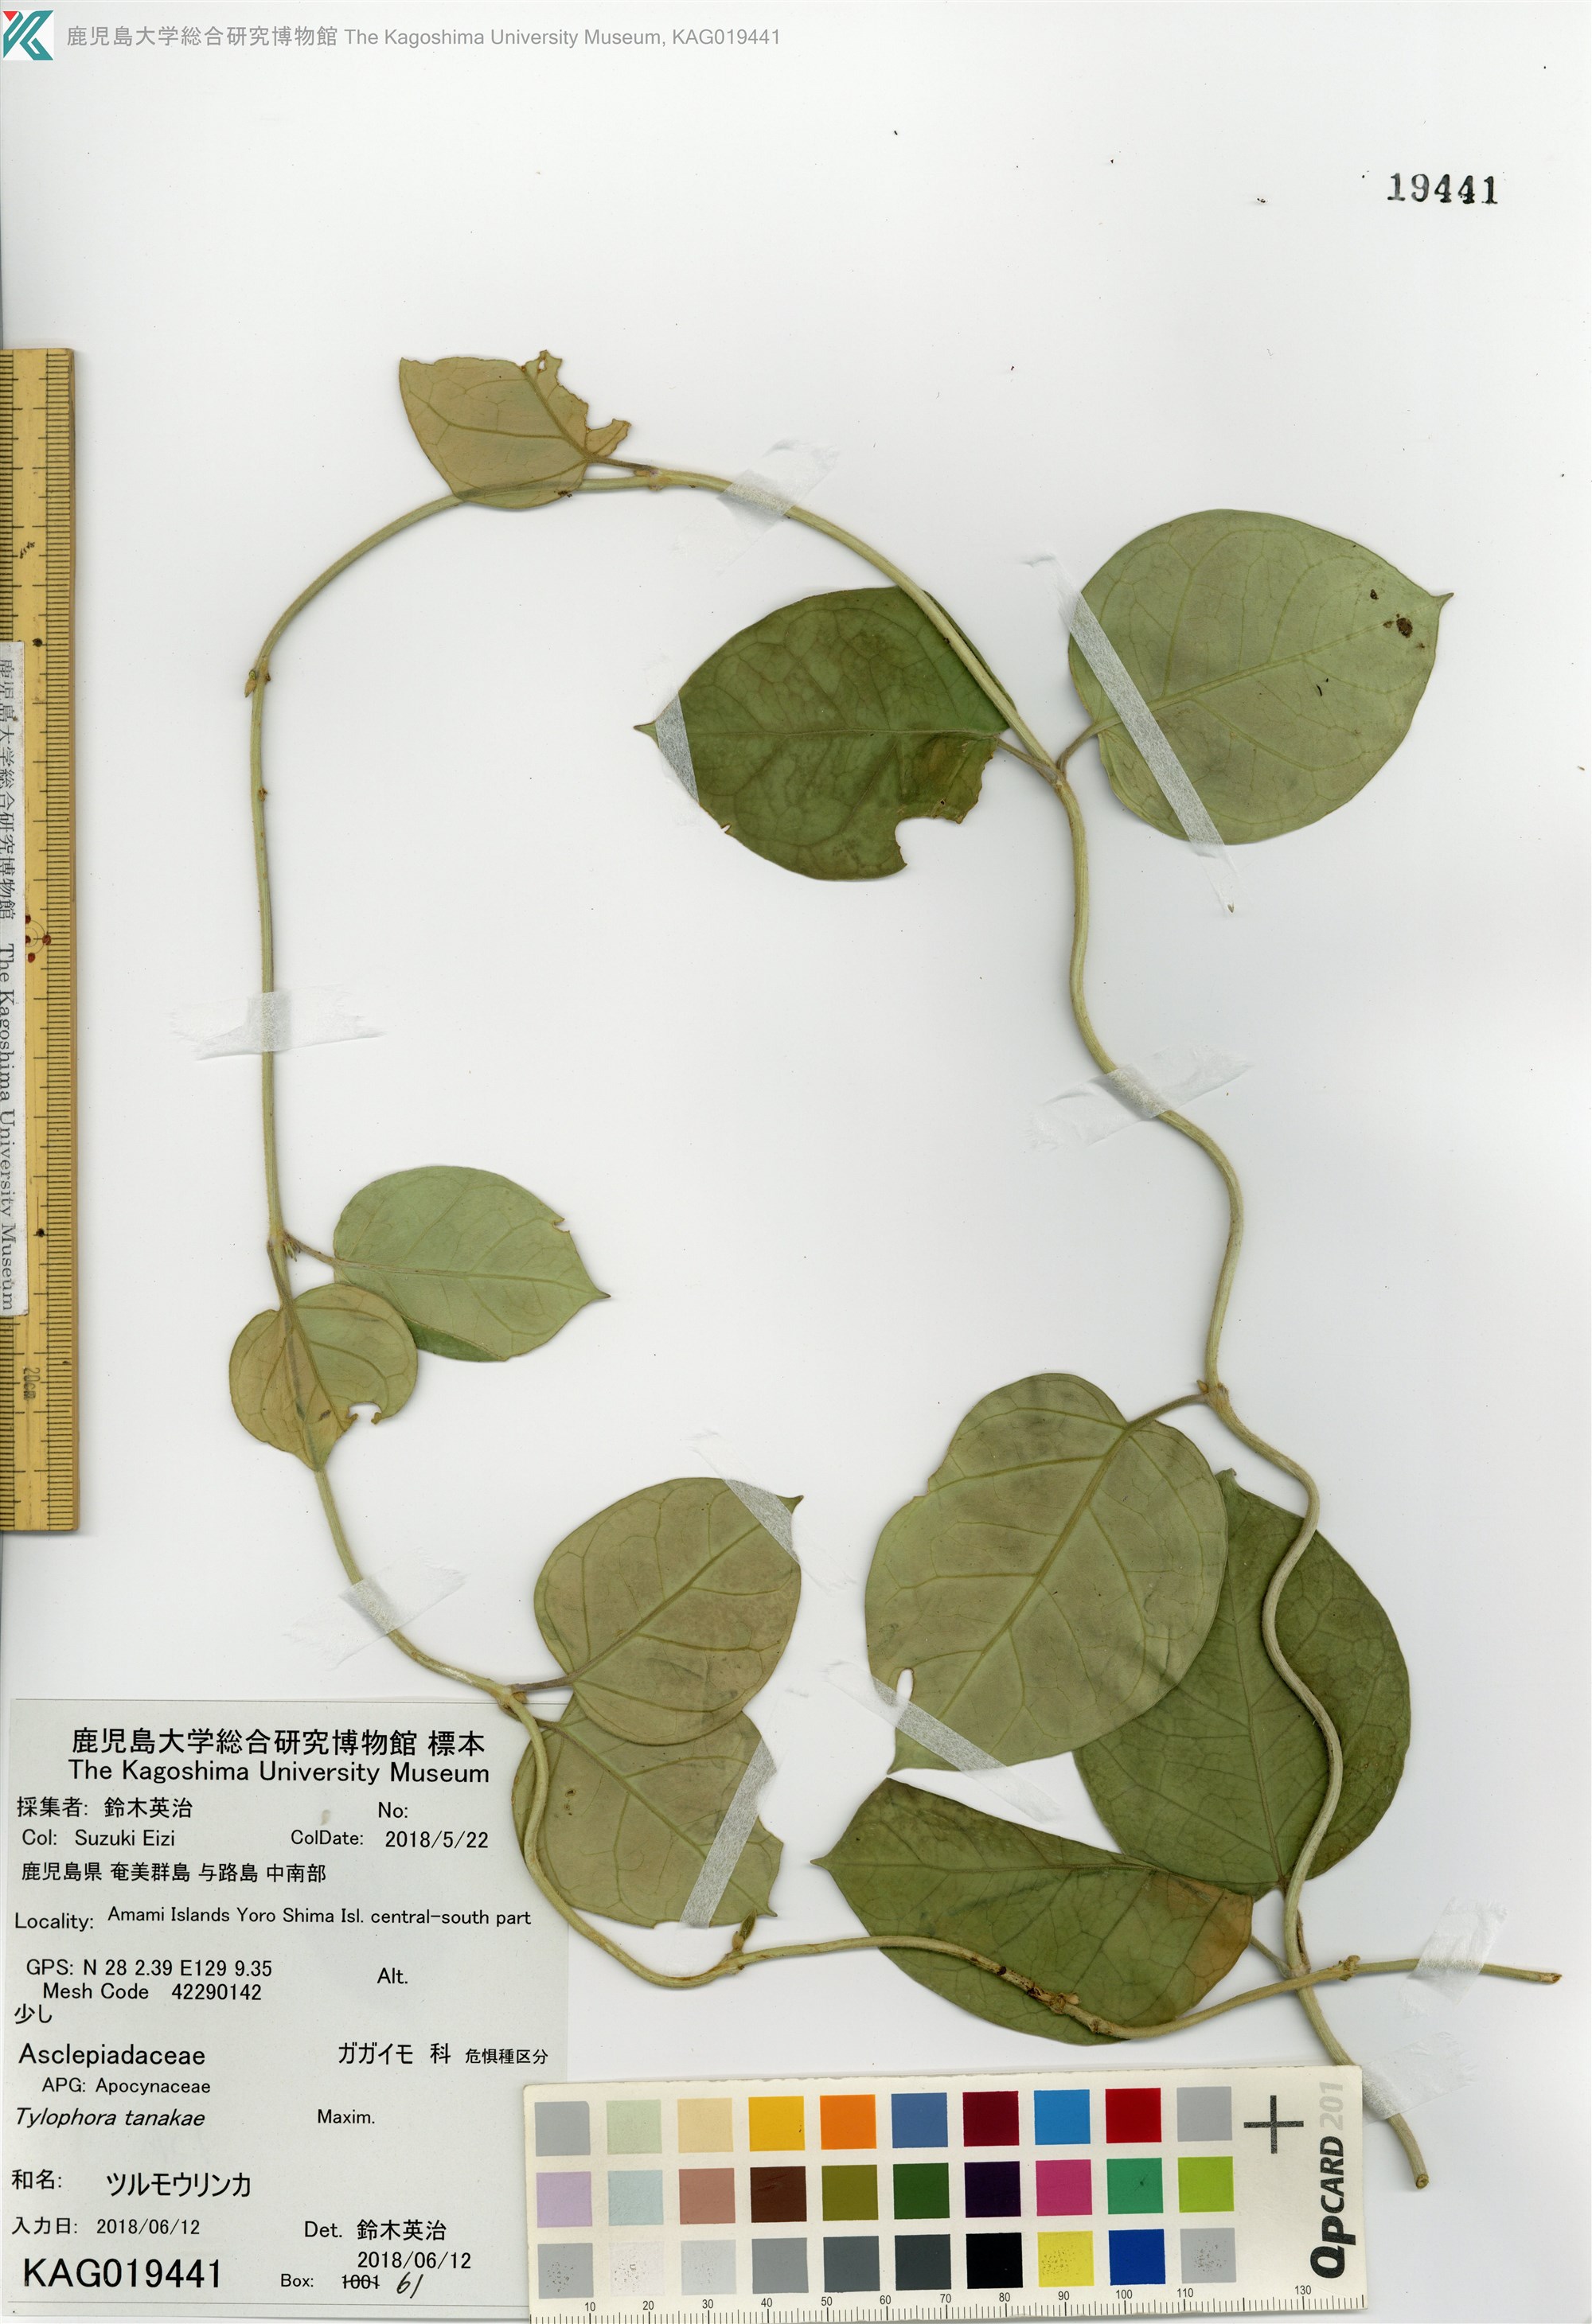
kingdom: Plantae
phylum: Tracheophyta
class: Magnoliopsida
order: Gentianales
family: Apocynaceae
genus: Vincetoxicum
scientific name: Vincetoxicum tanakae
